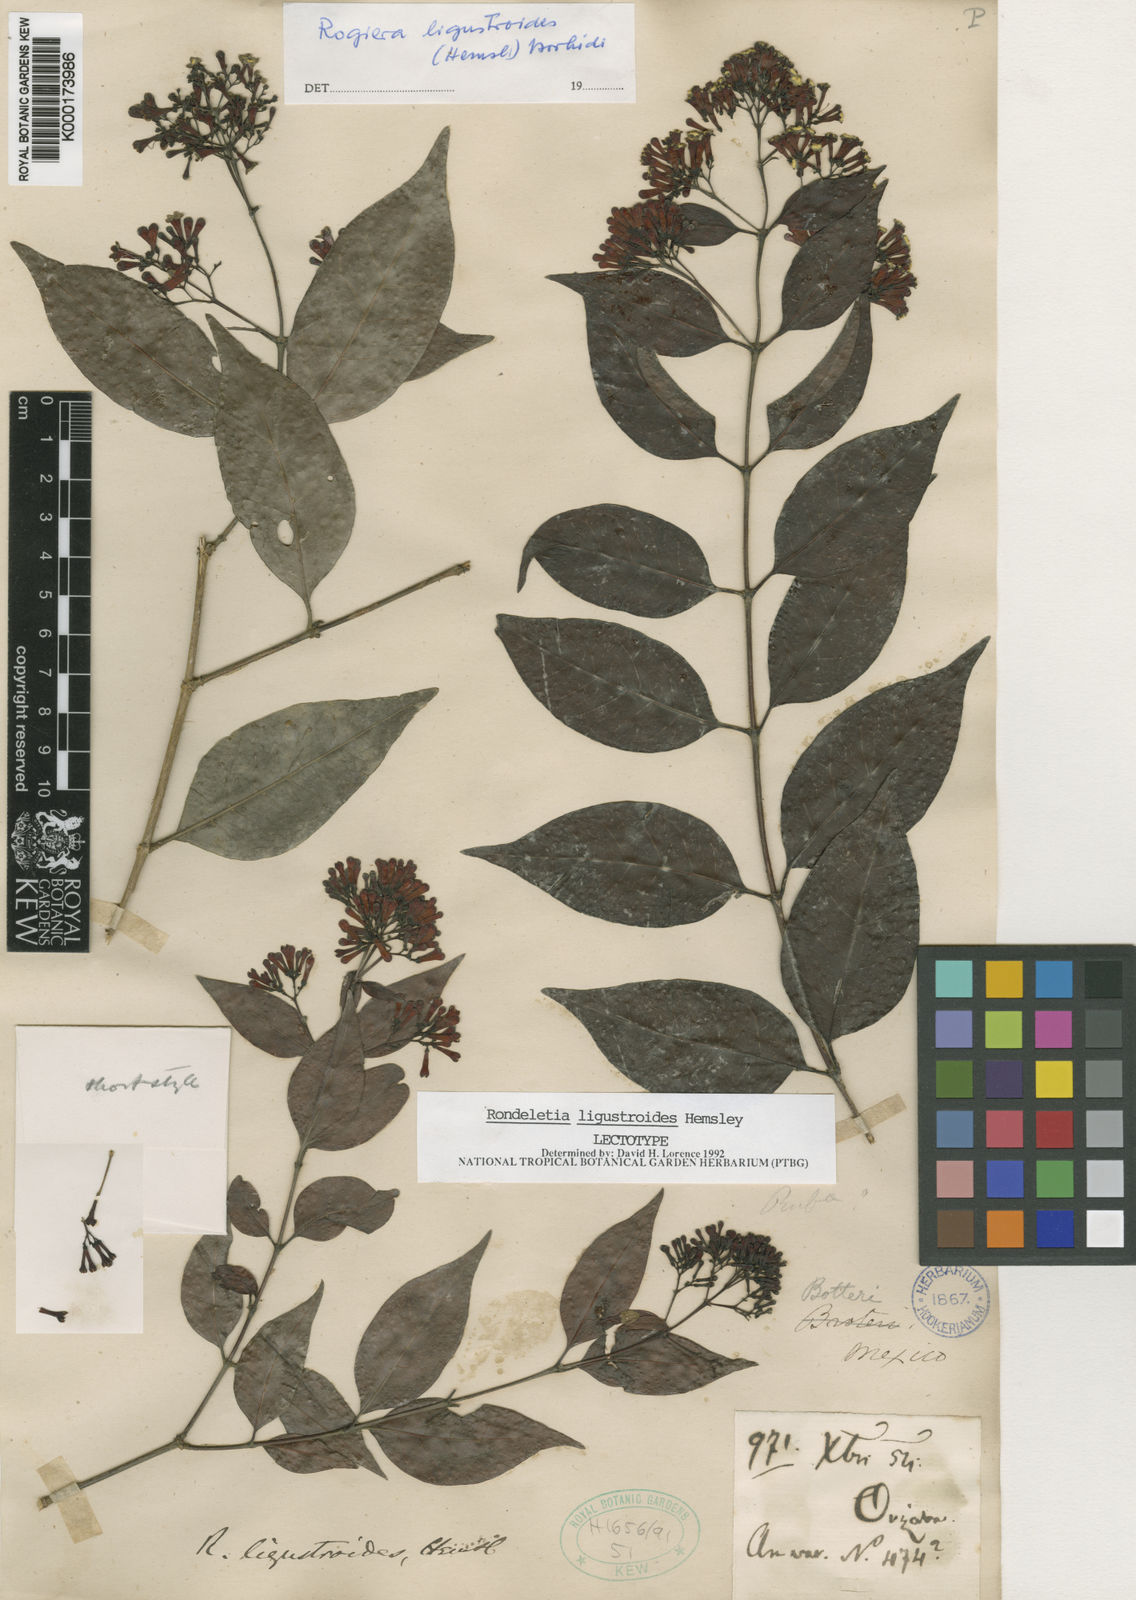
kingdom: Plantae
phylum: Tracheophyta
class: Magnoliopsida
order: Gentianales
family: Rubiaceae
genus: Rogiera
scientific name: Rogiera ligustroides
